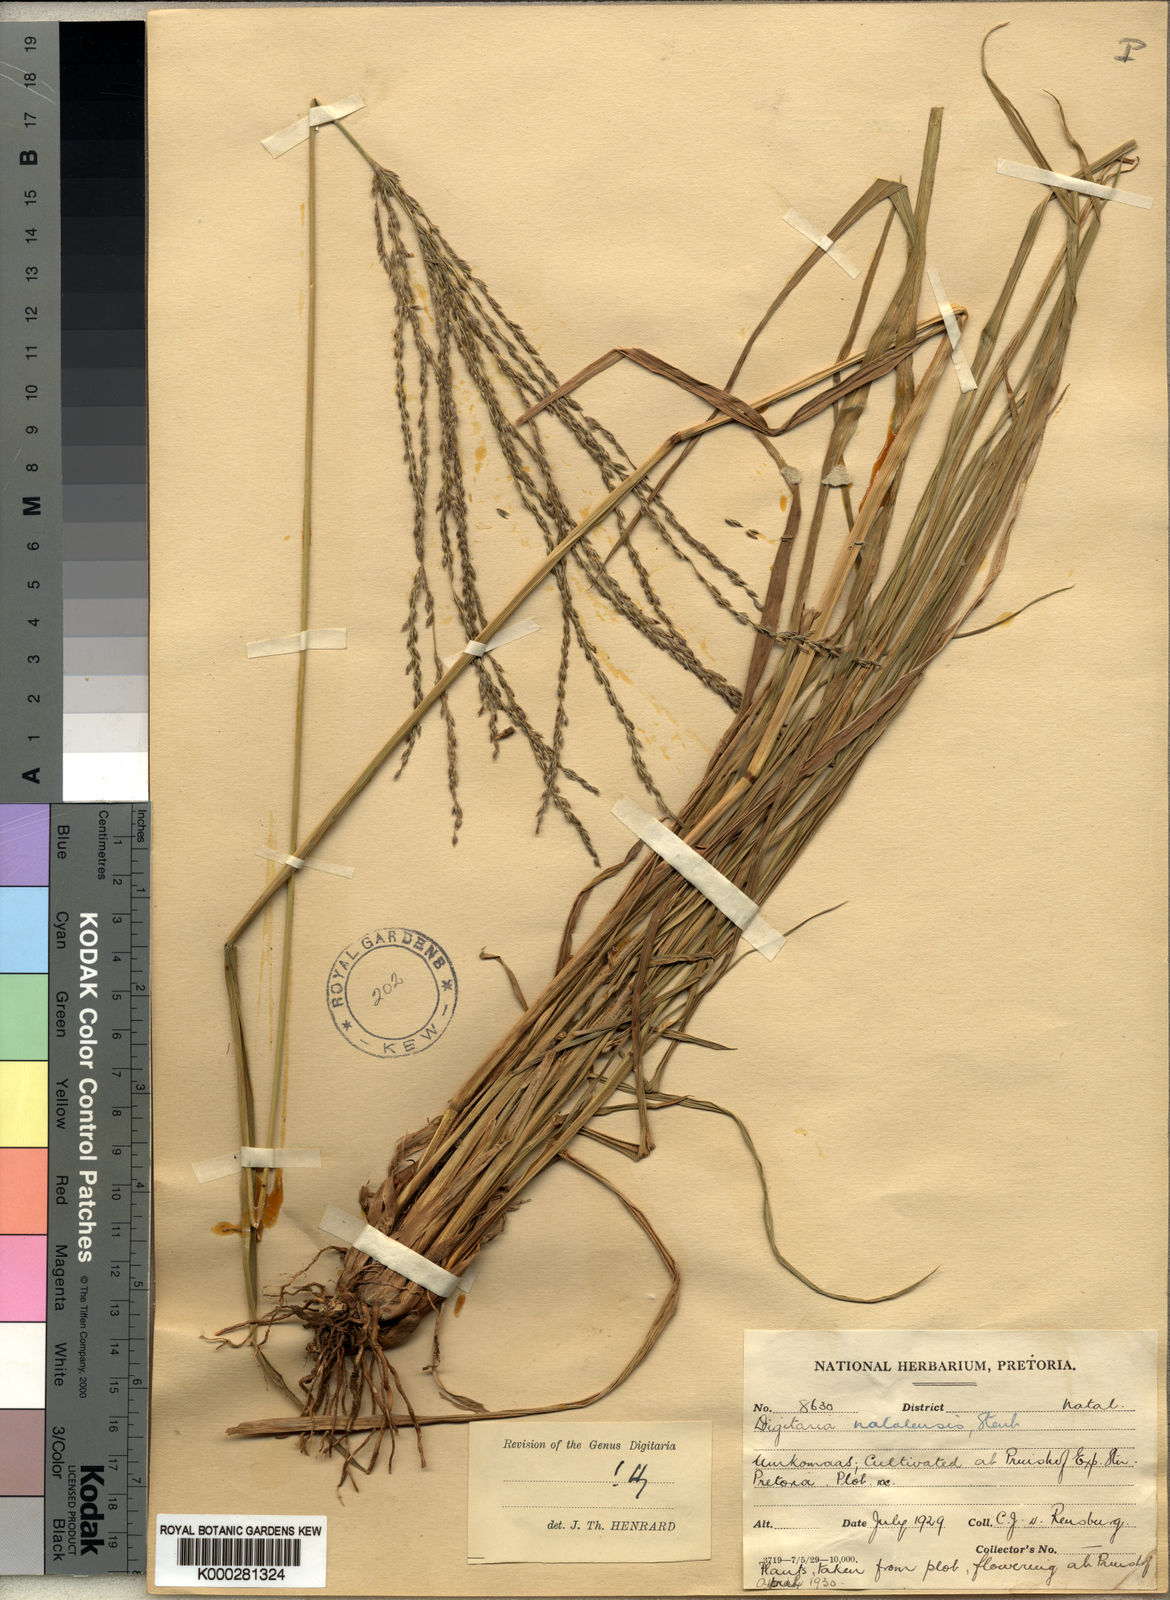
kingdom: Plantae
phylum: Tracheophyta
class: Liliopsida
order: Poales
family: Poaceae
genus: Digitaria
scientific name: Digitaria natalensis
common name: Coast finger grass
